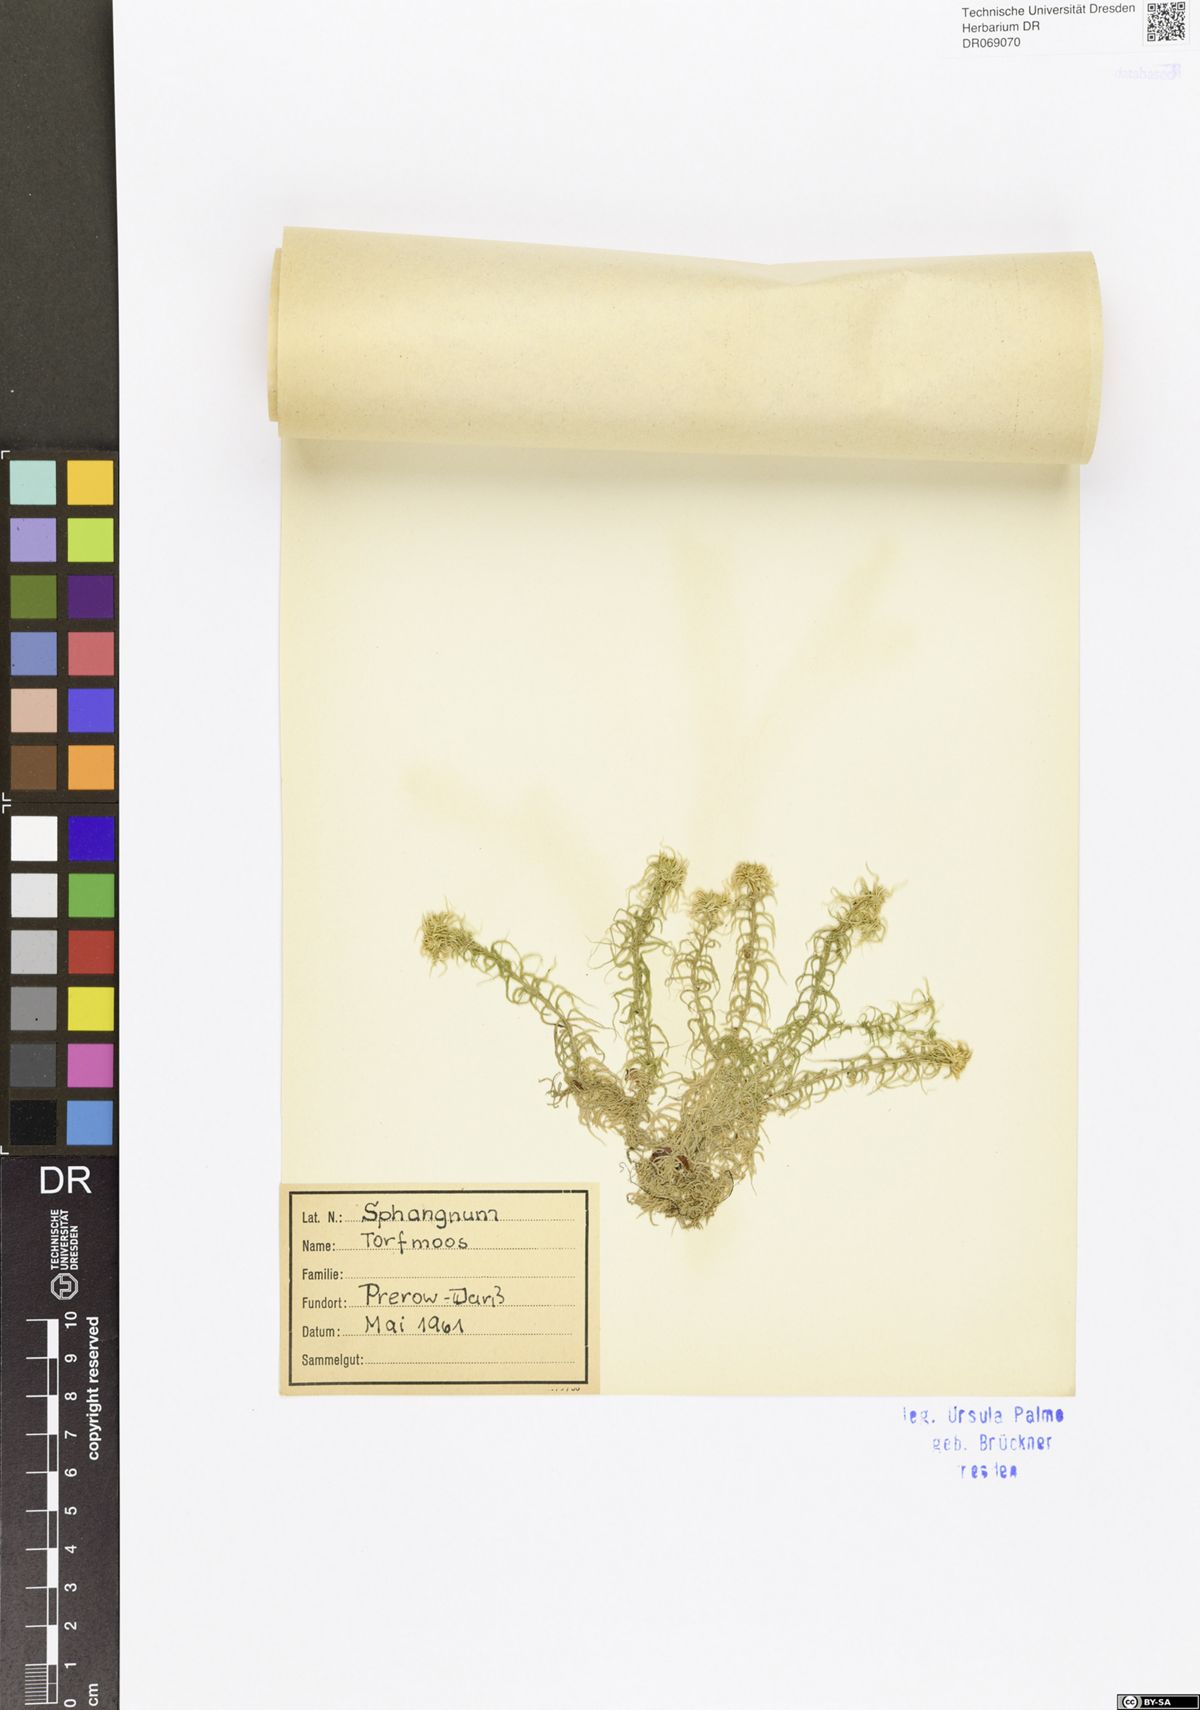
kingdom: Plantae
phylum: Bryophyta
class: Sphagnopsida
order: Sphagnales
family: Sphagnaceae
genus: Sphagnum
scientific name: Sphagnum
